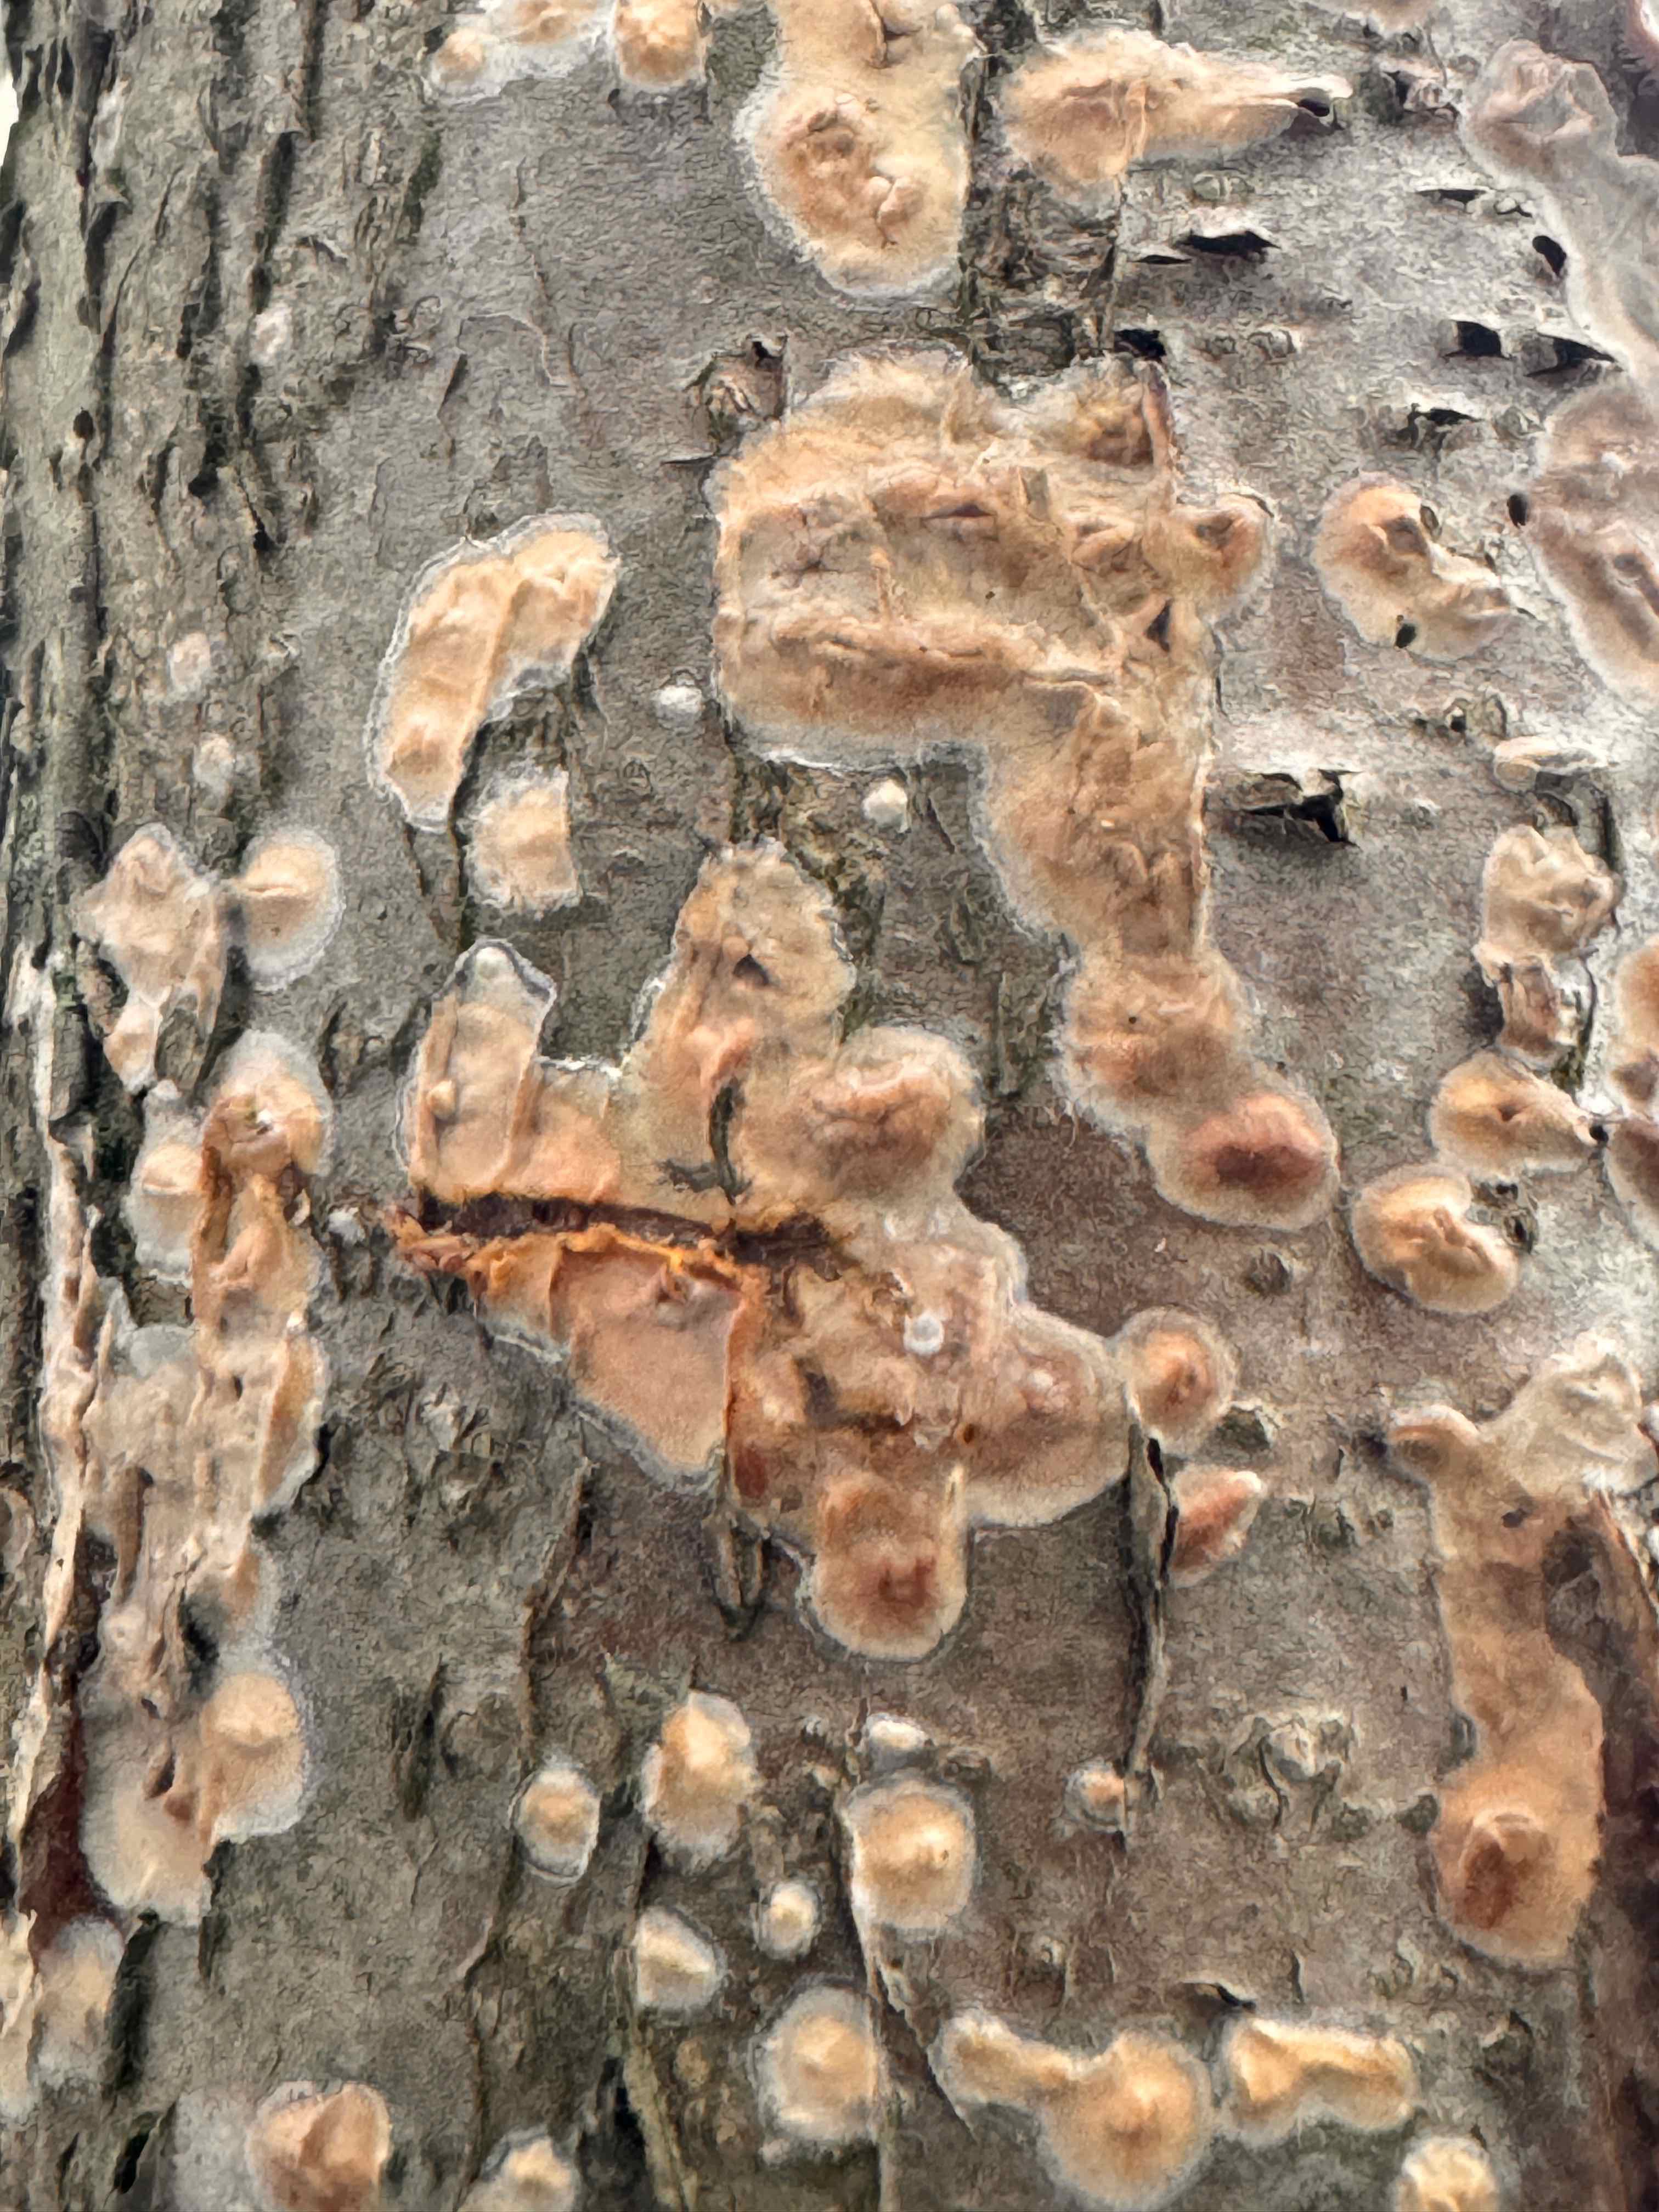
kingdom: Fungi
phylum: Basidiomycota
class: Agaricomycetes
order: Russulales
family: Stereaceae
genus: Stereum
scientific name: Stereum rugosum
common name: rynket lædersvamp
